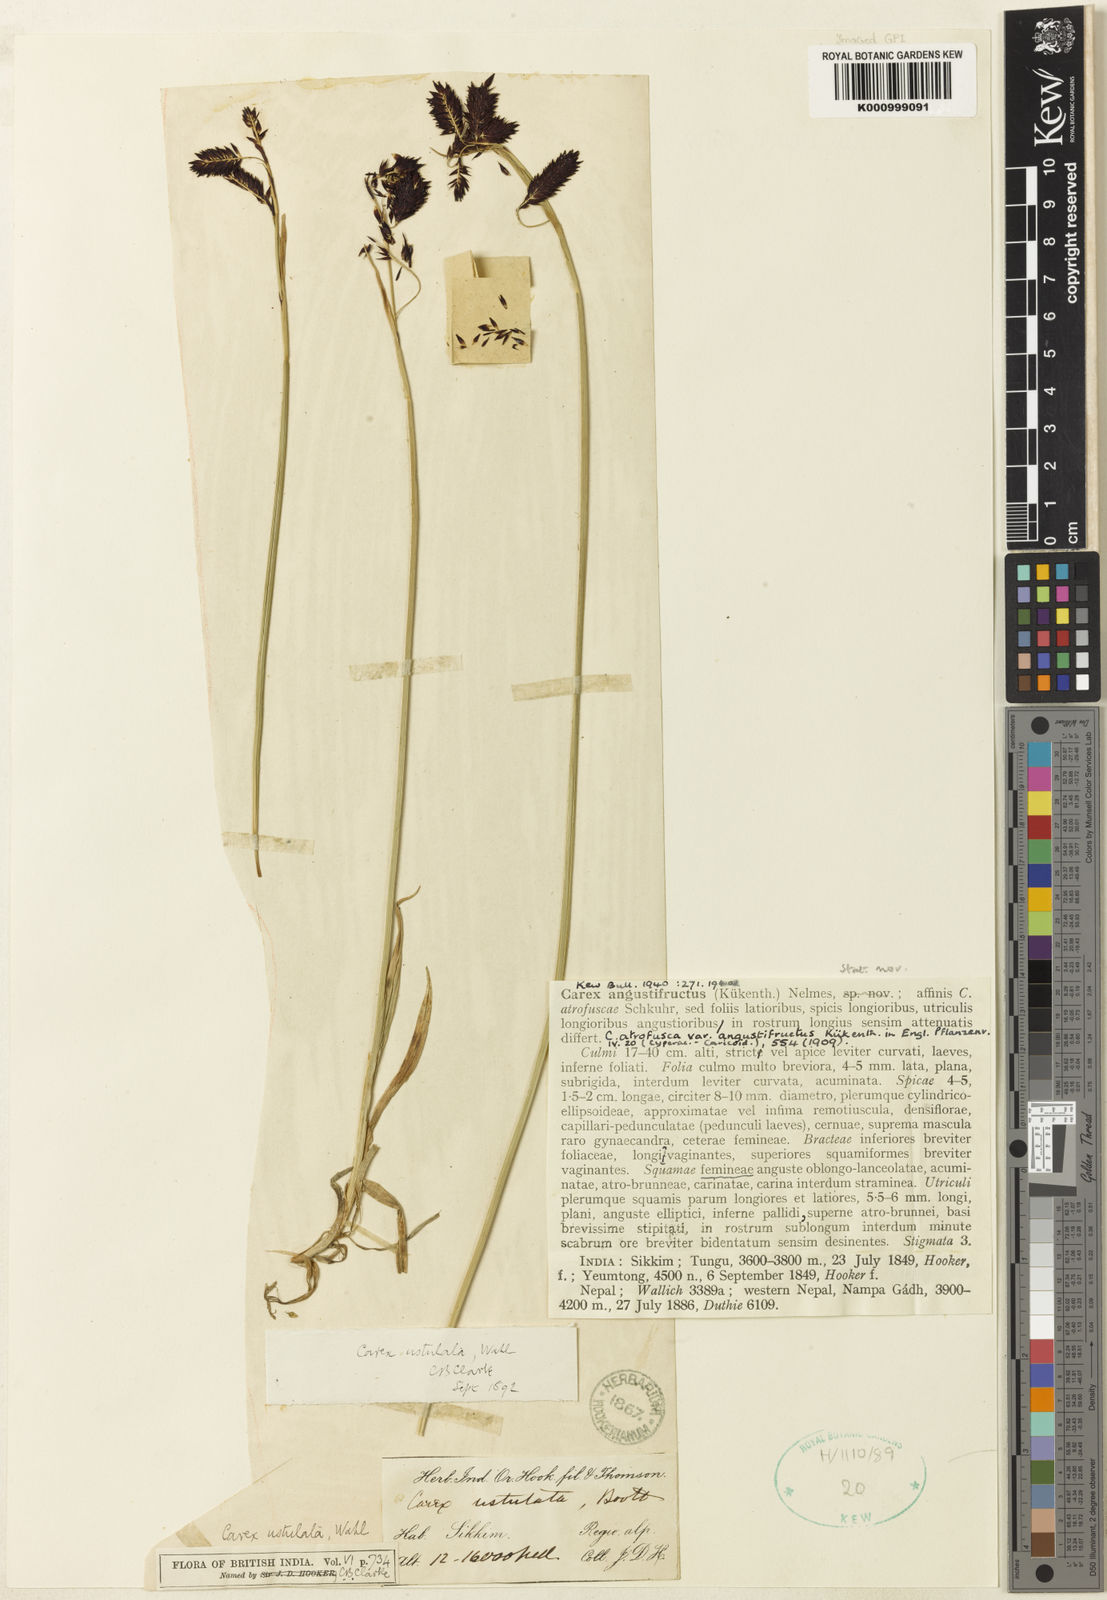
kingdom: Plantae
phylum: Tracheophyta
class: Liliopsida
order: Poales
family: Cyperaceae
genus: Carex
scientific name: Carex atrofusca
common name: Scorched alpine-sedge
